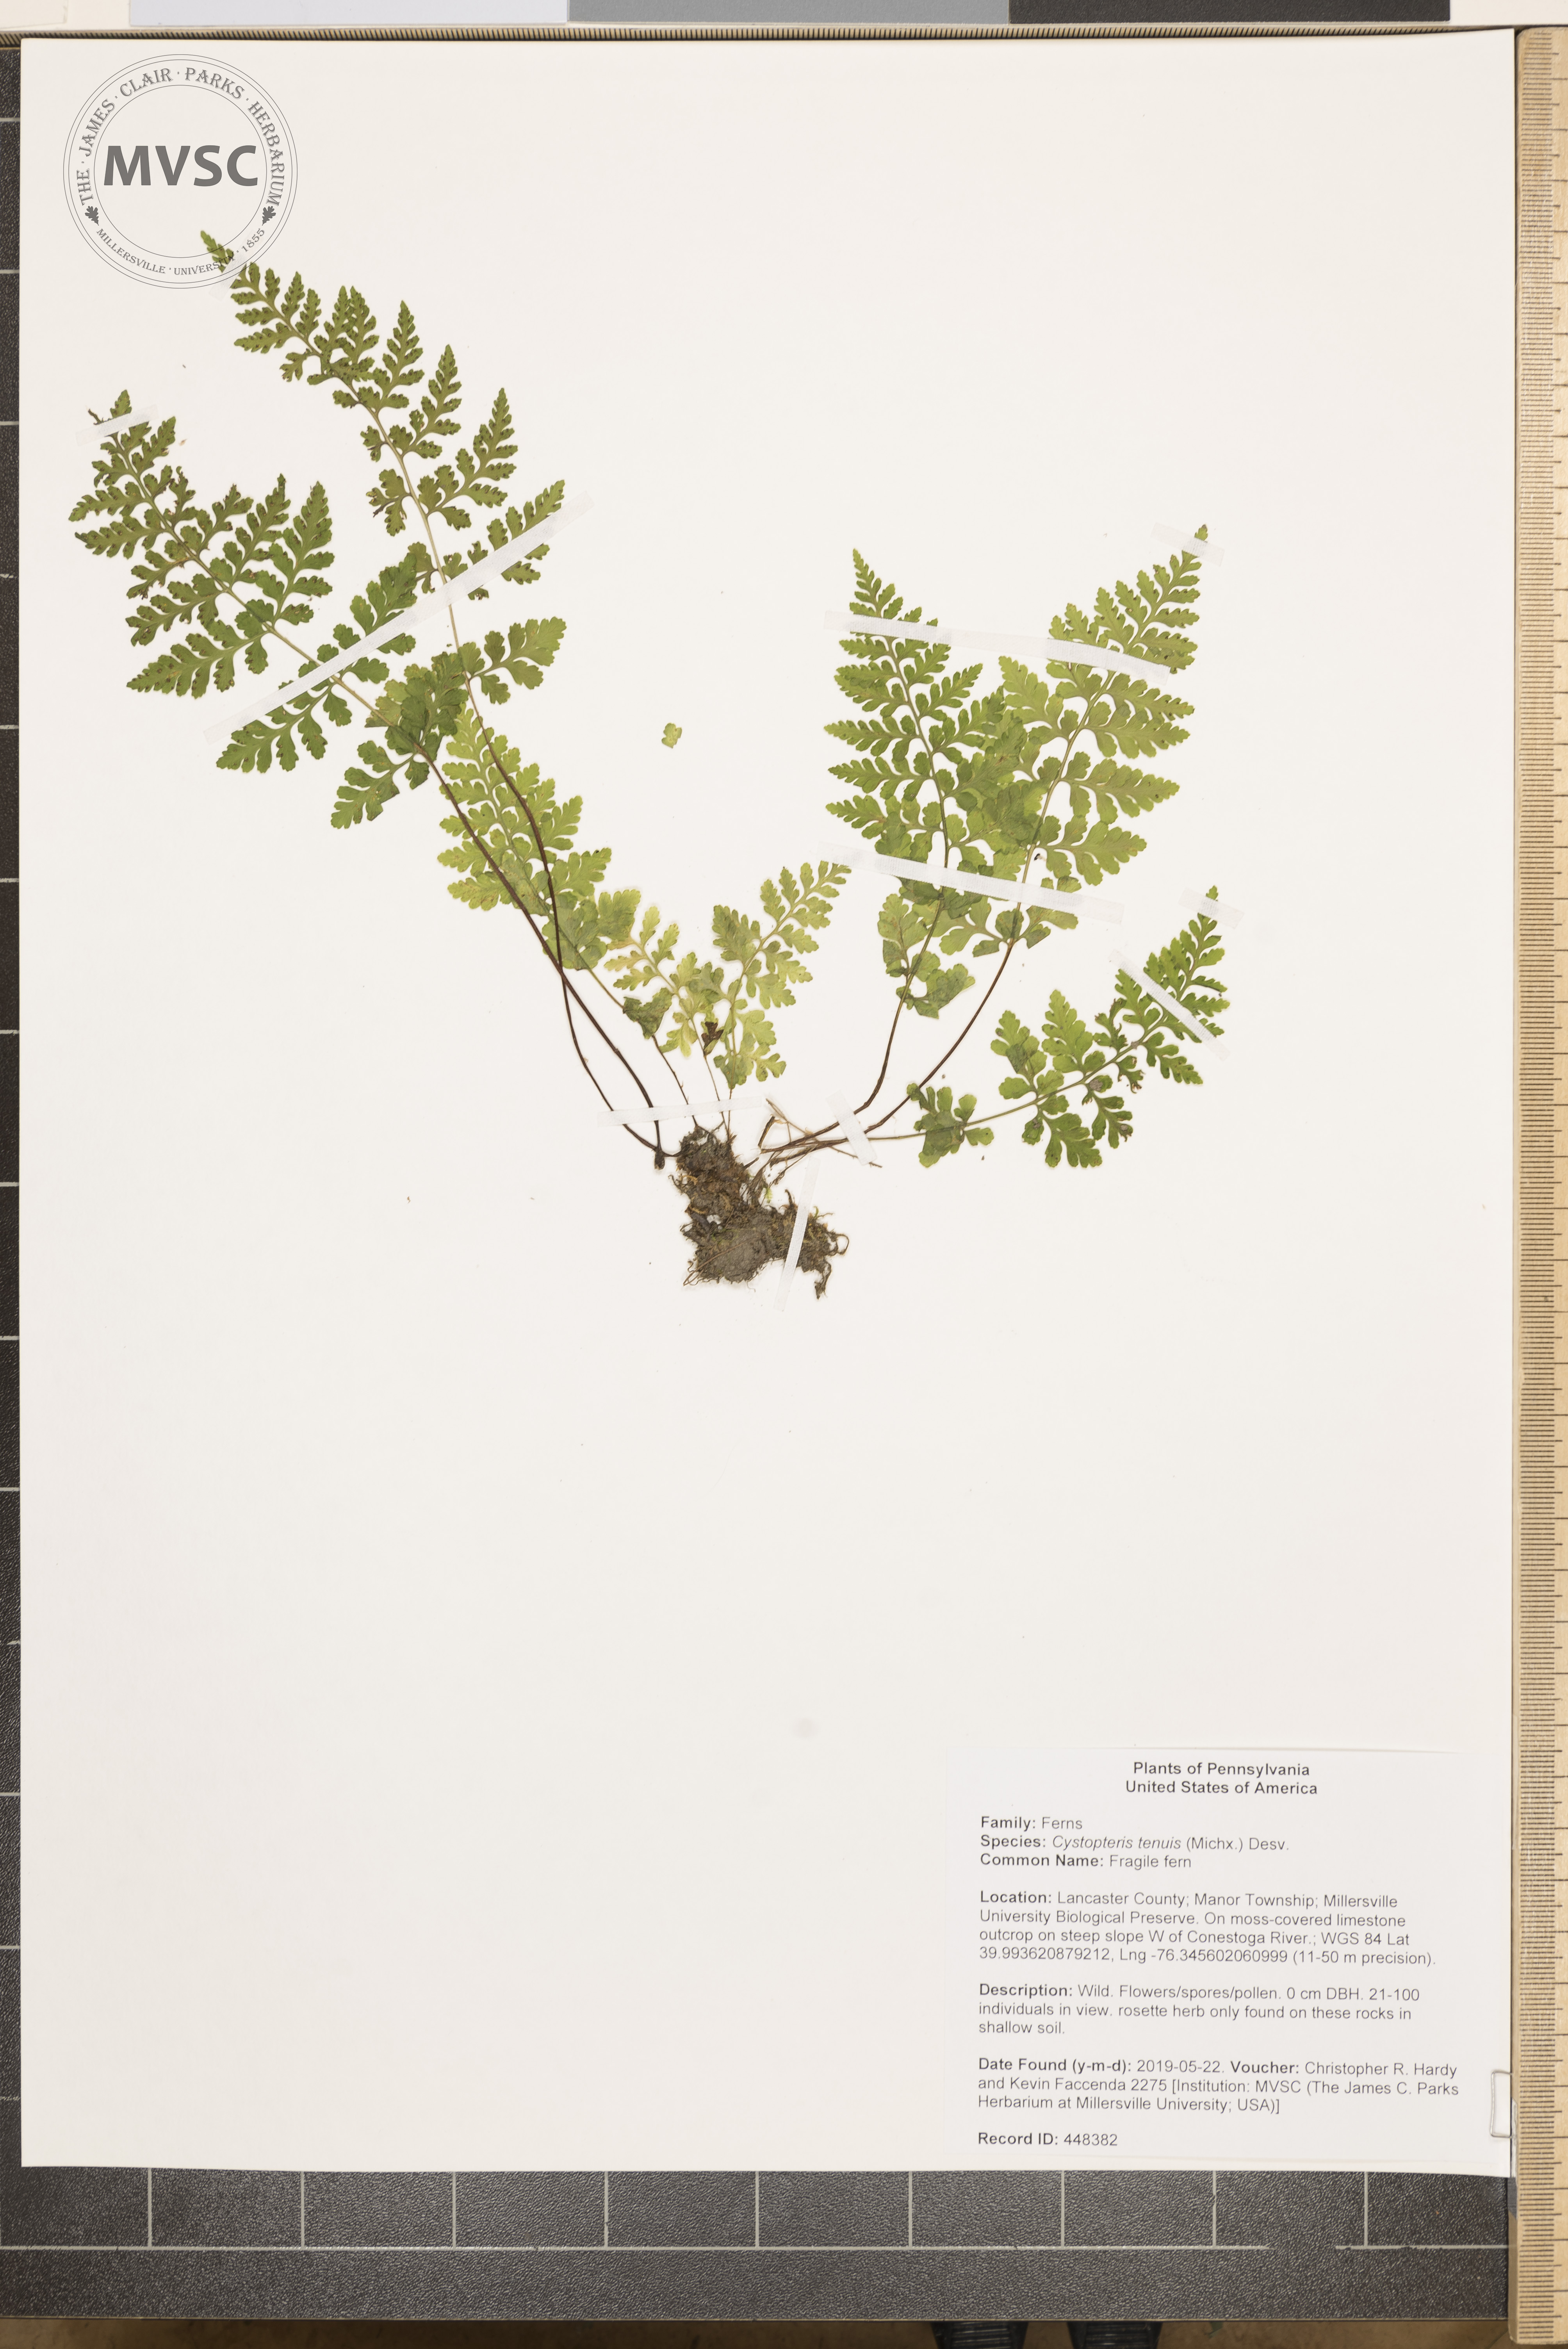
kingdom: Plantae
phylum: Tracheophyta
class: Polypodiopsida
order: Polypodiales
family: Cystopteridaceae
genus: Cystopteris
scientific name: Cystopteris tenuis
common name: Fragile fern
